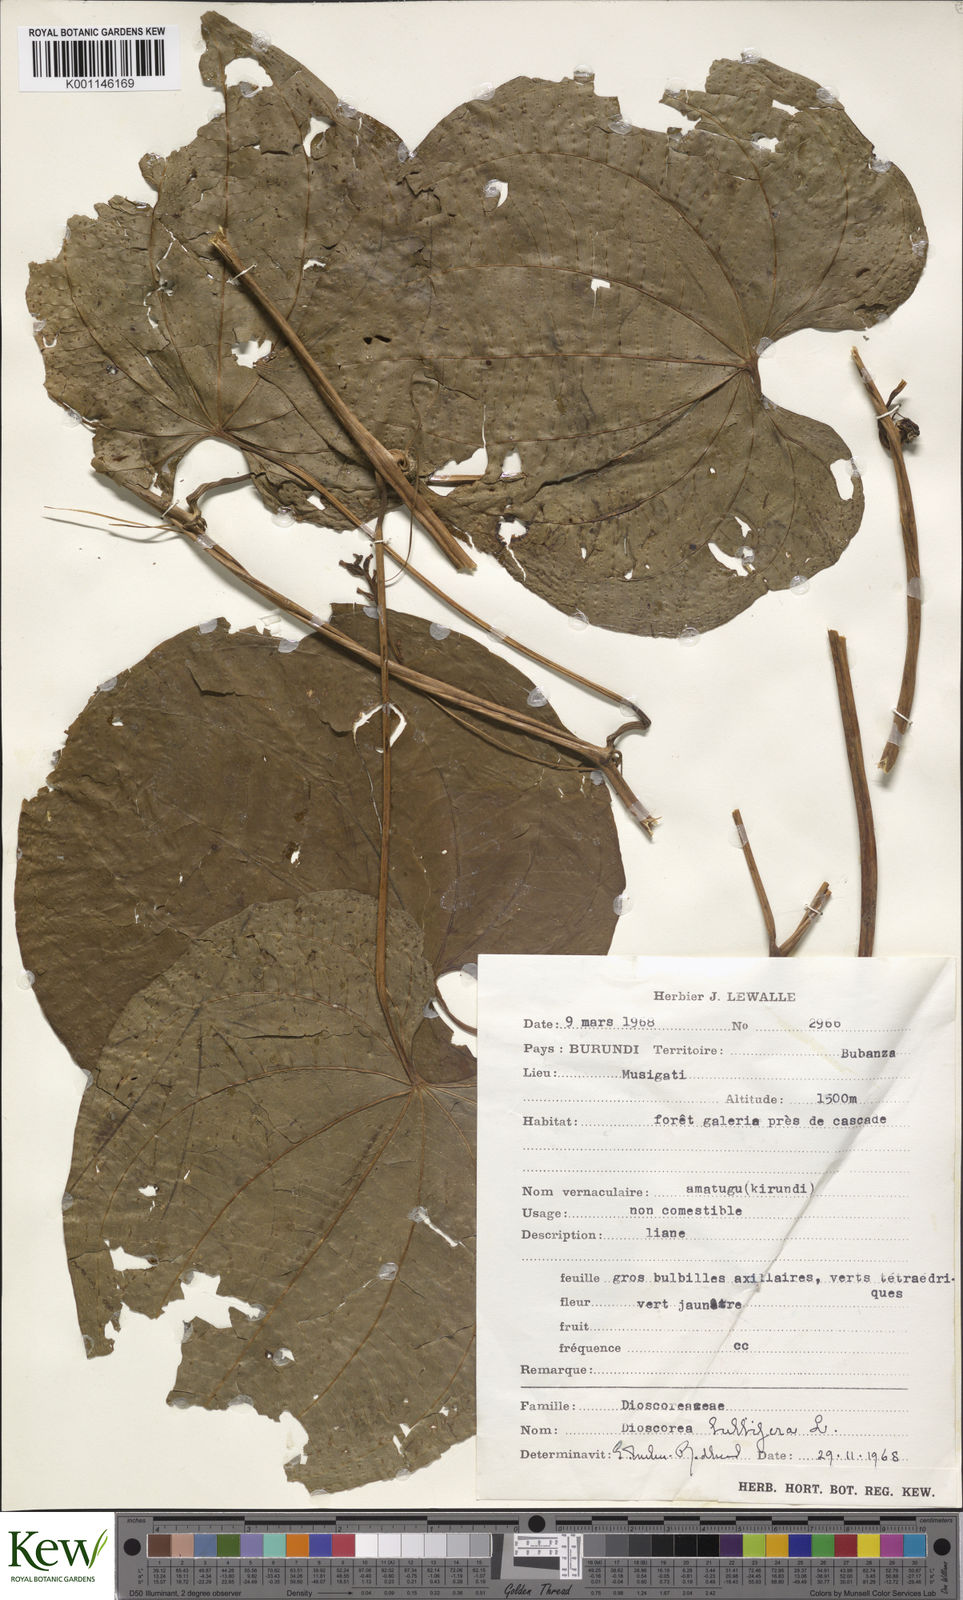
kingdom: Plantae
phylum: Tracheophyta
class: Liliopsida
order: Dioscoreales
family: Dioscoreaceae
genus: Dioscorea
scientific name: Dioscorea bulbifera
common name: Air yam
